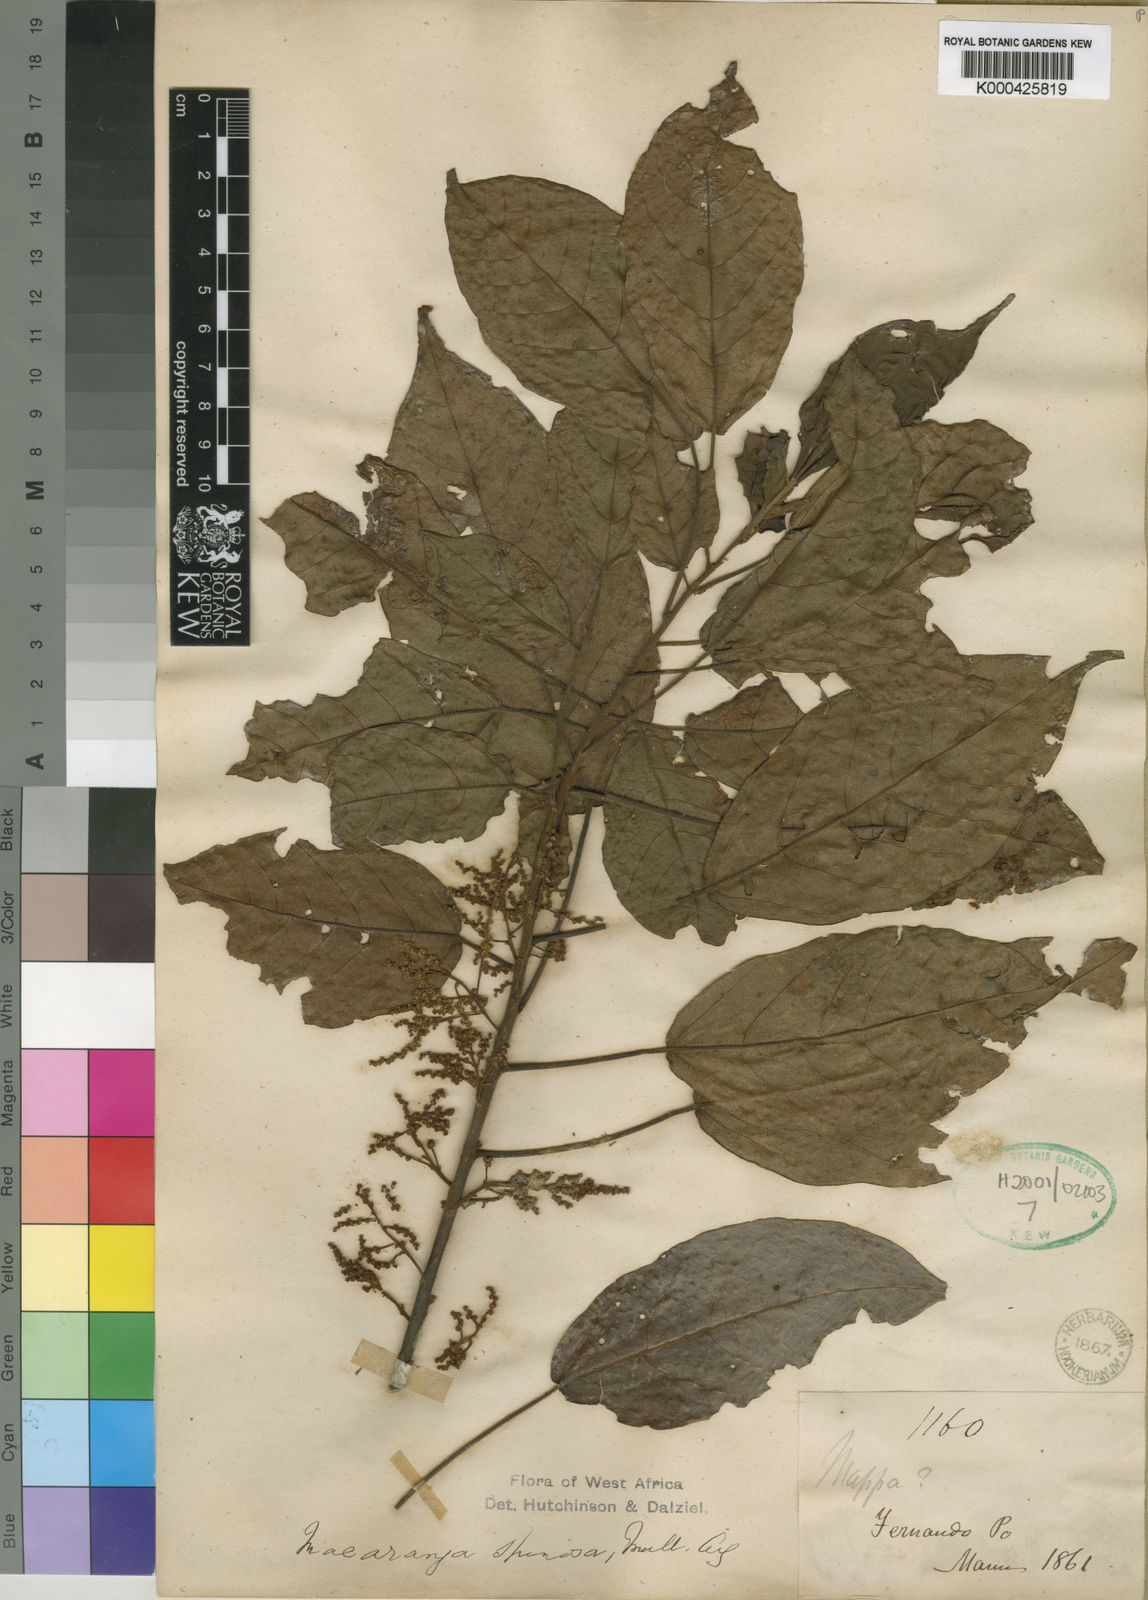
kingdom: Plantae
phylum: Tracheophyta
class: Magnoliopsida
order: Malpighiales
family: Euphorbiaceae
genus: Macaranga
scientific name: Macaranga
